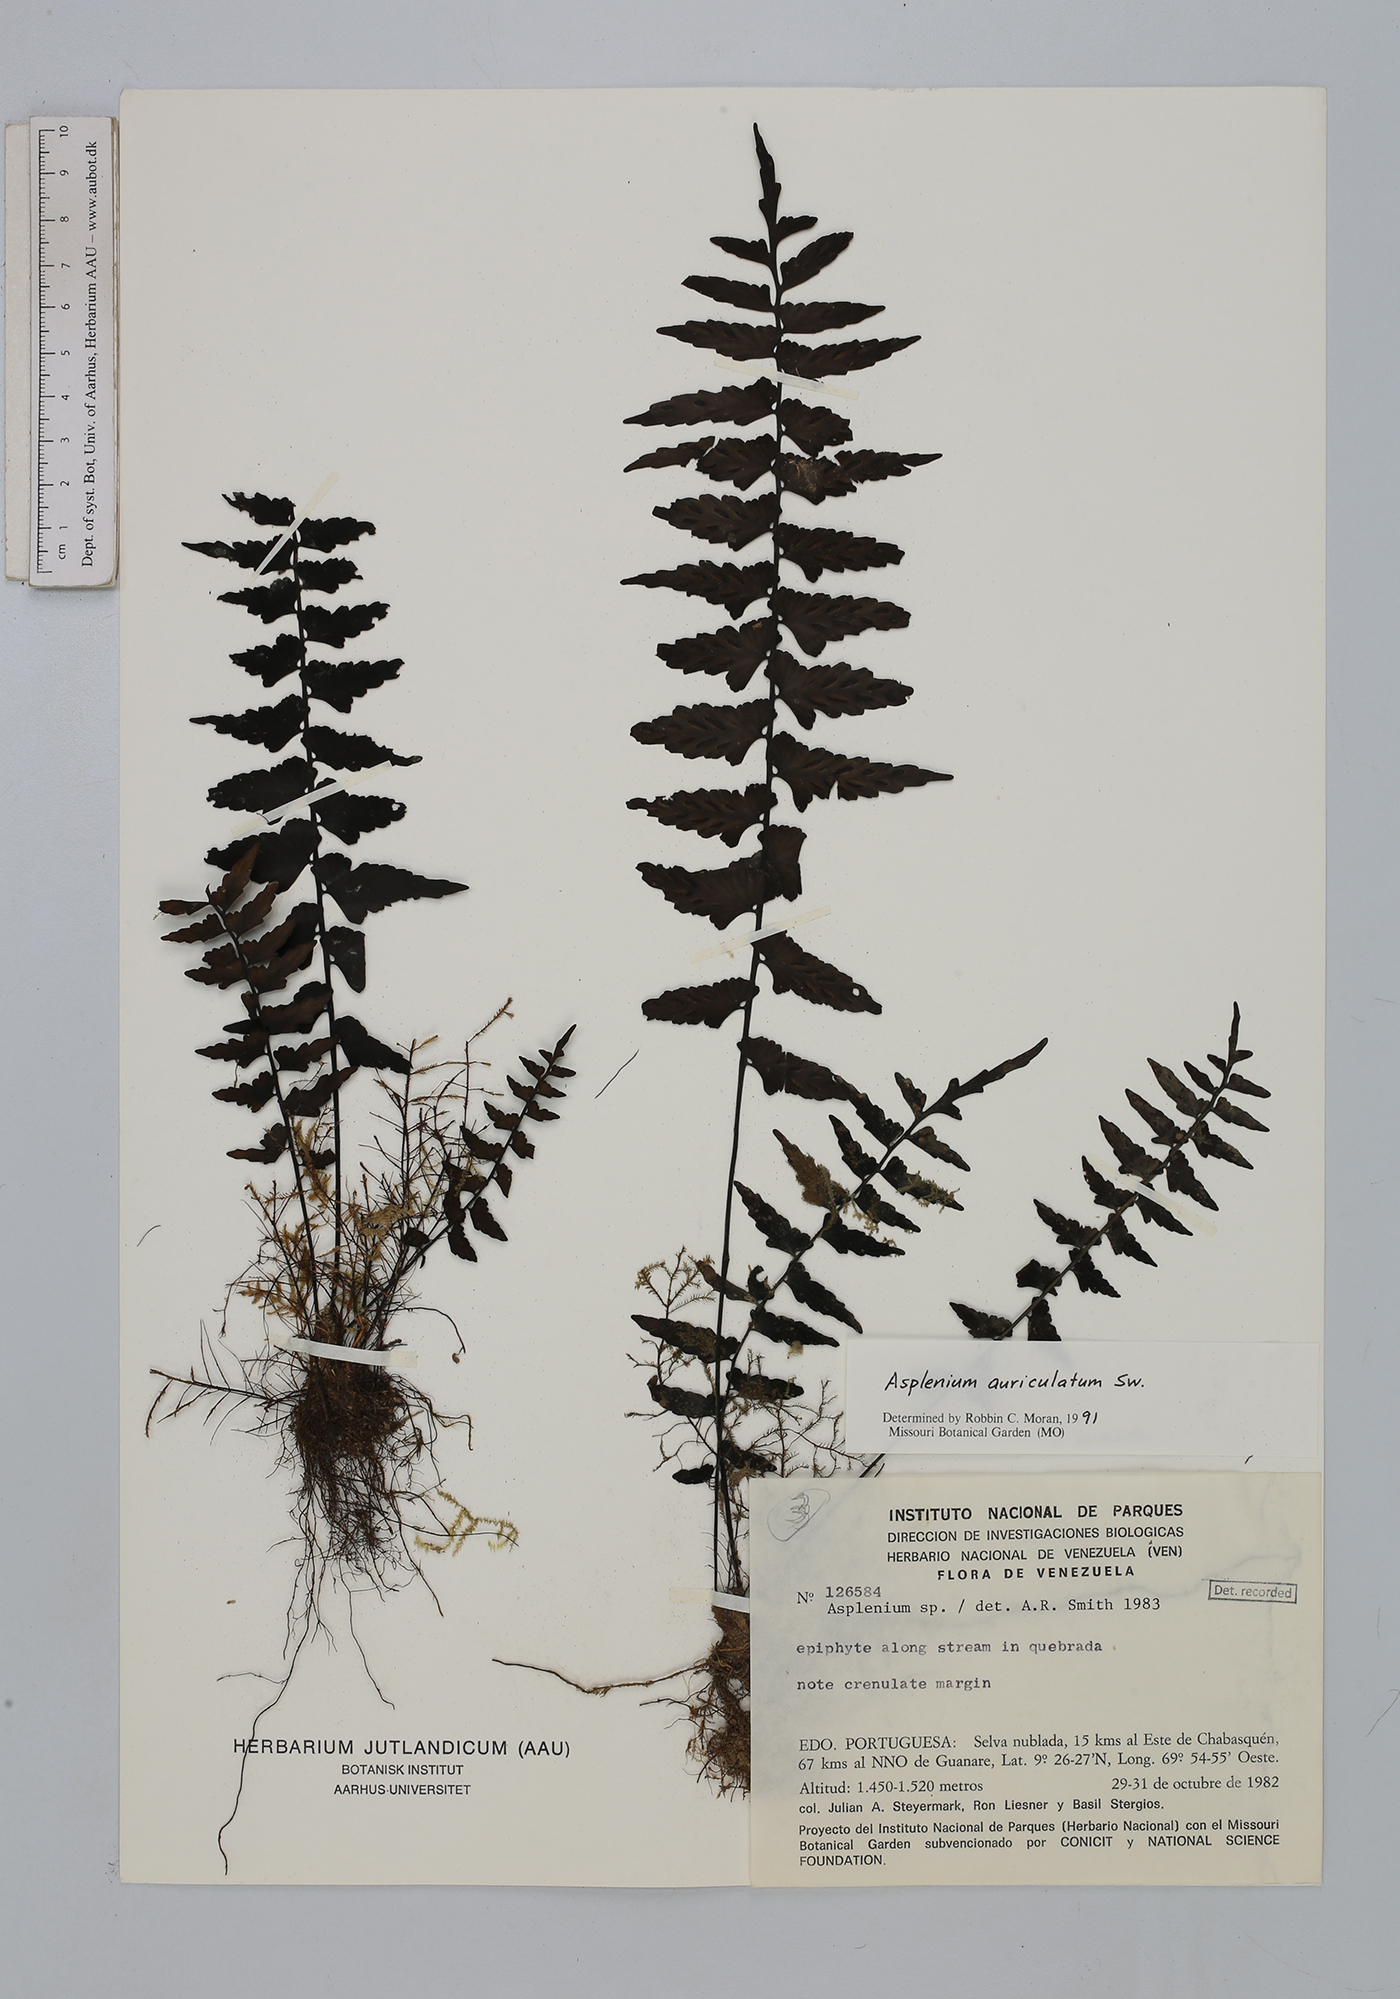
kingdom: Plantae
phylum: Tracheophyta
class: Polypodiopsida
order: Polypodiales
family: Aspleniaceae
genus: Asplenium
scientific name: Asplenium auriculatum
